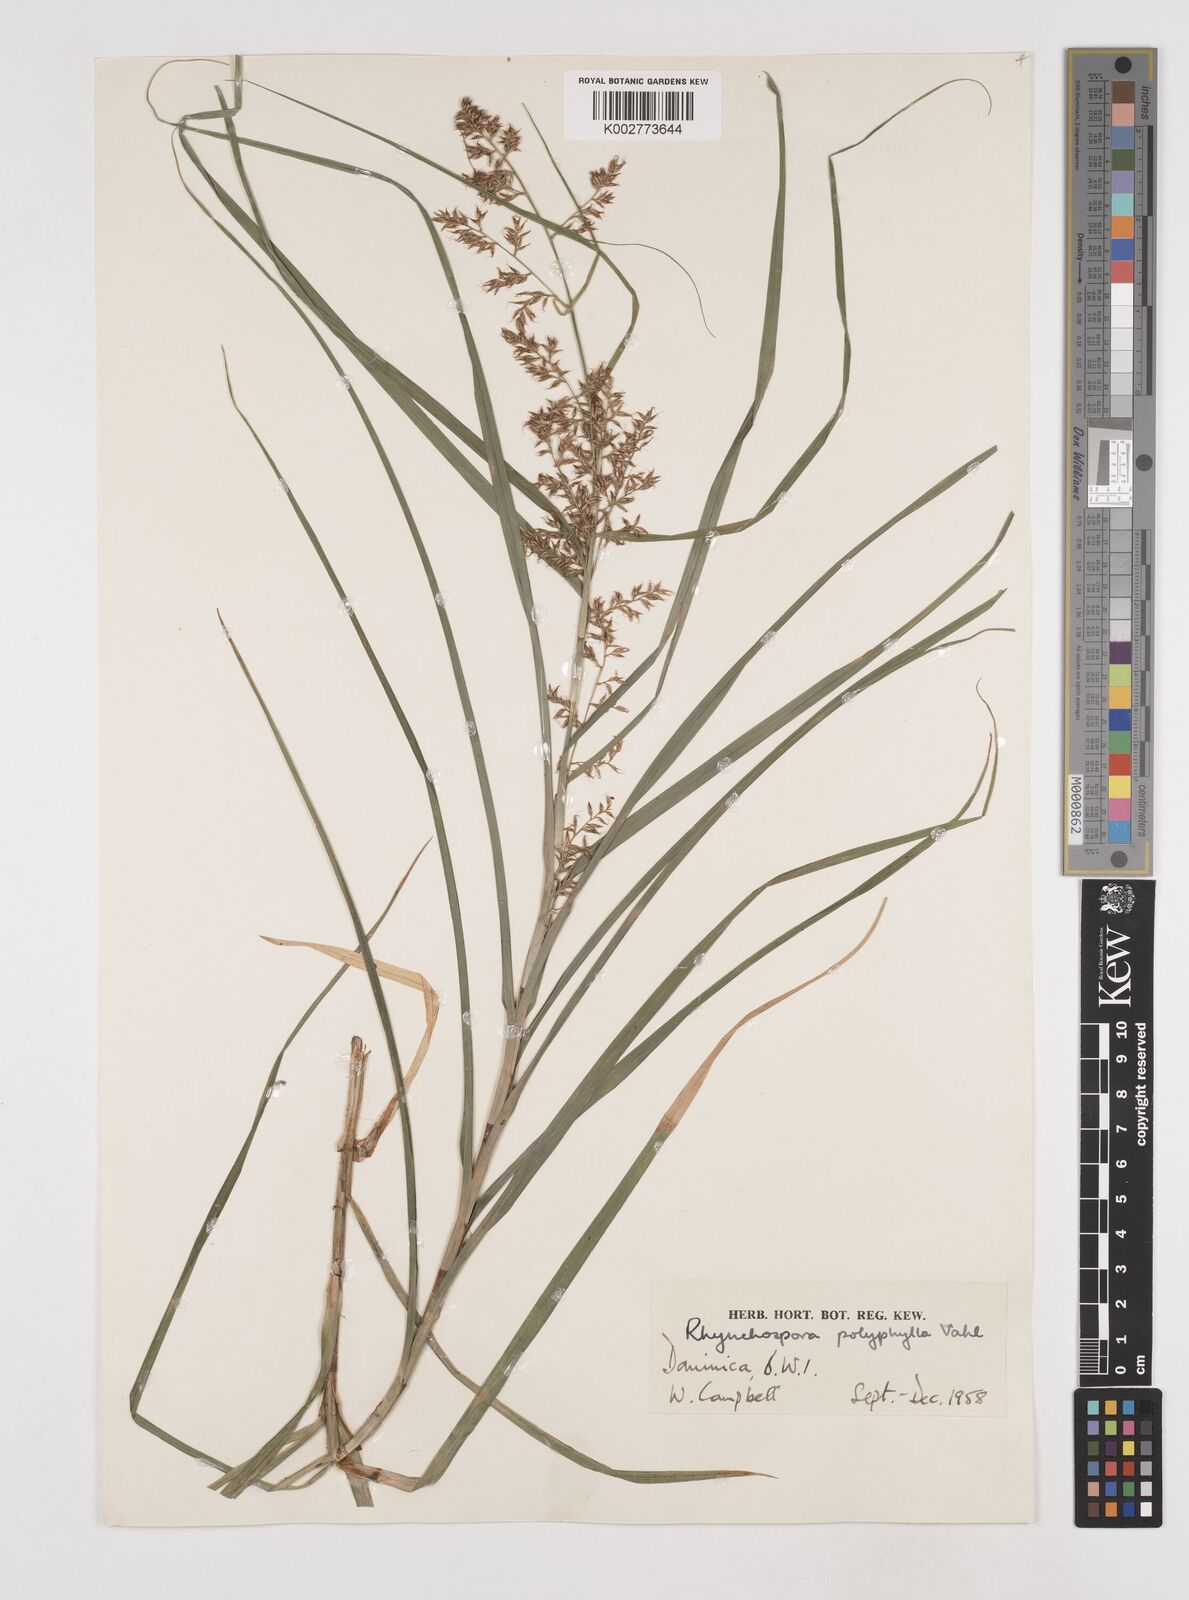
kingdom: Plantae
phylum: Tracheophyta
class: Liliopsida
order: Poales
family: Cyperaceae
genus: Rhynchospora
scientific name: Rhynchospora polyphylla
